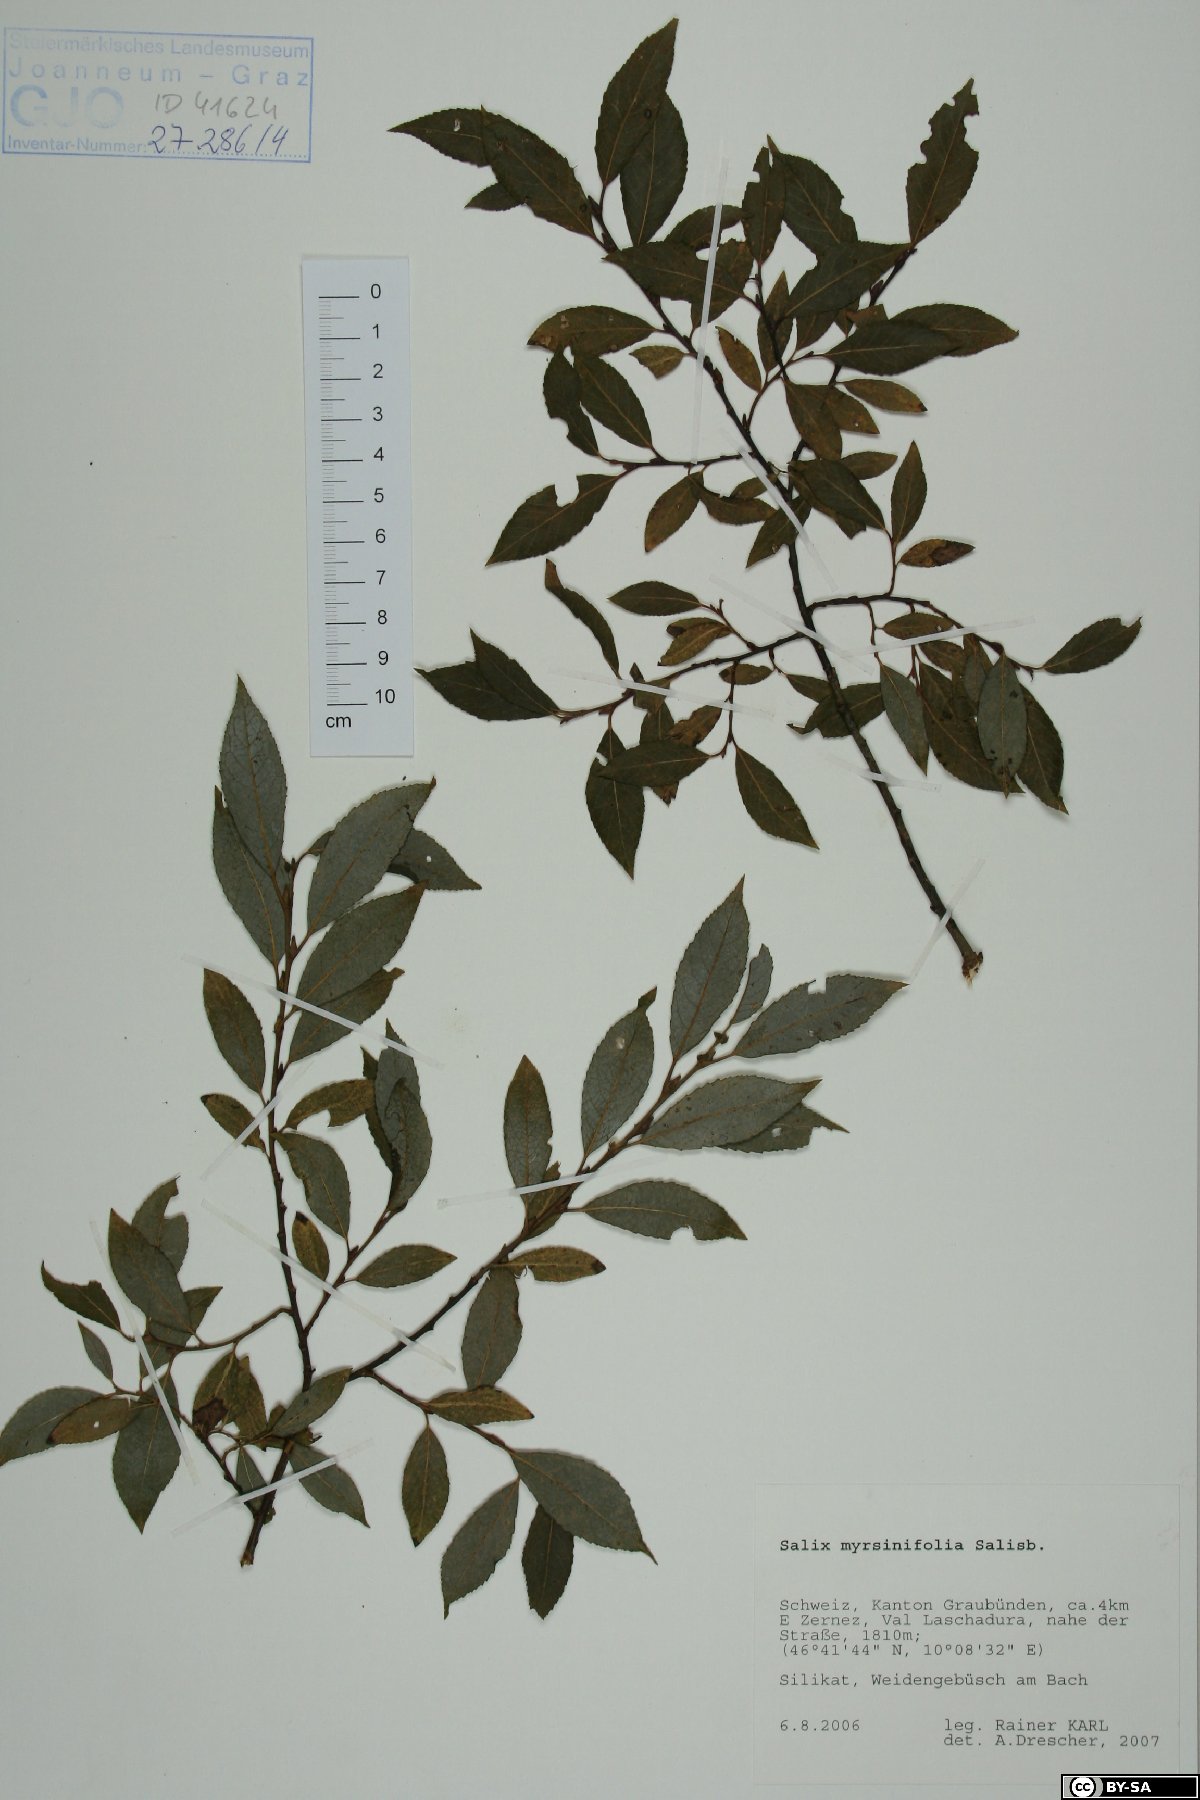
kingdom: Plantae
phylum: Tracheophyta
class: Magnoliopsida
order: Malpighiales
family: Salicaceae
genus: Salix
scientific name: Salix myrsinifolia
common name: Dark-leaved willow
